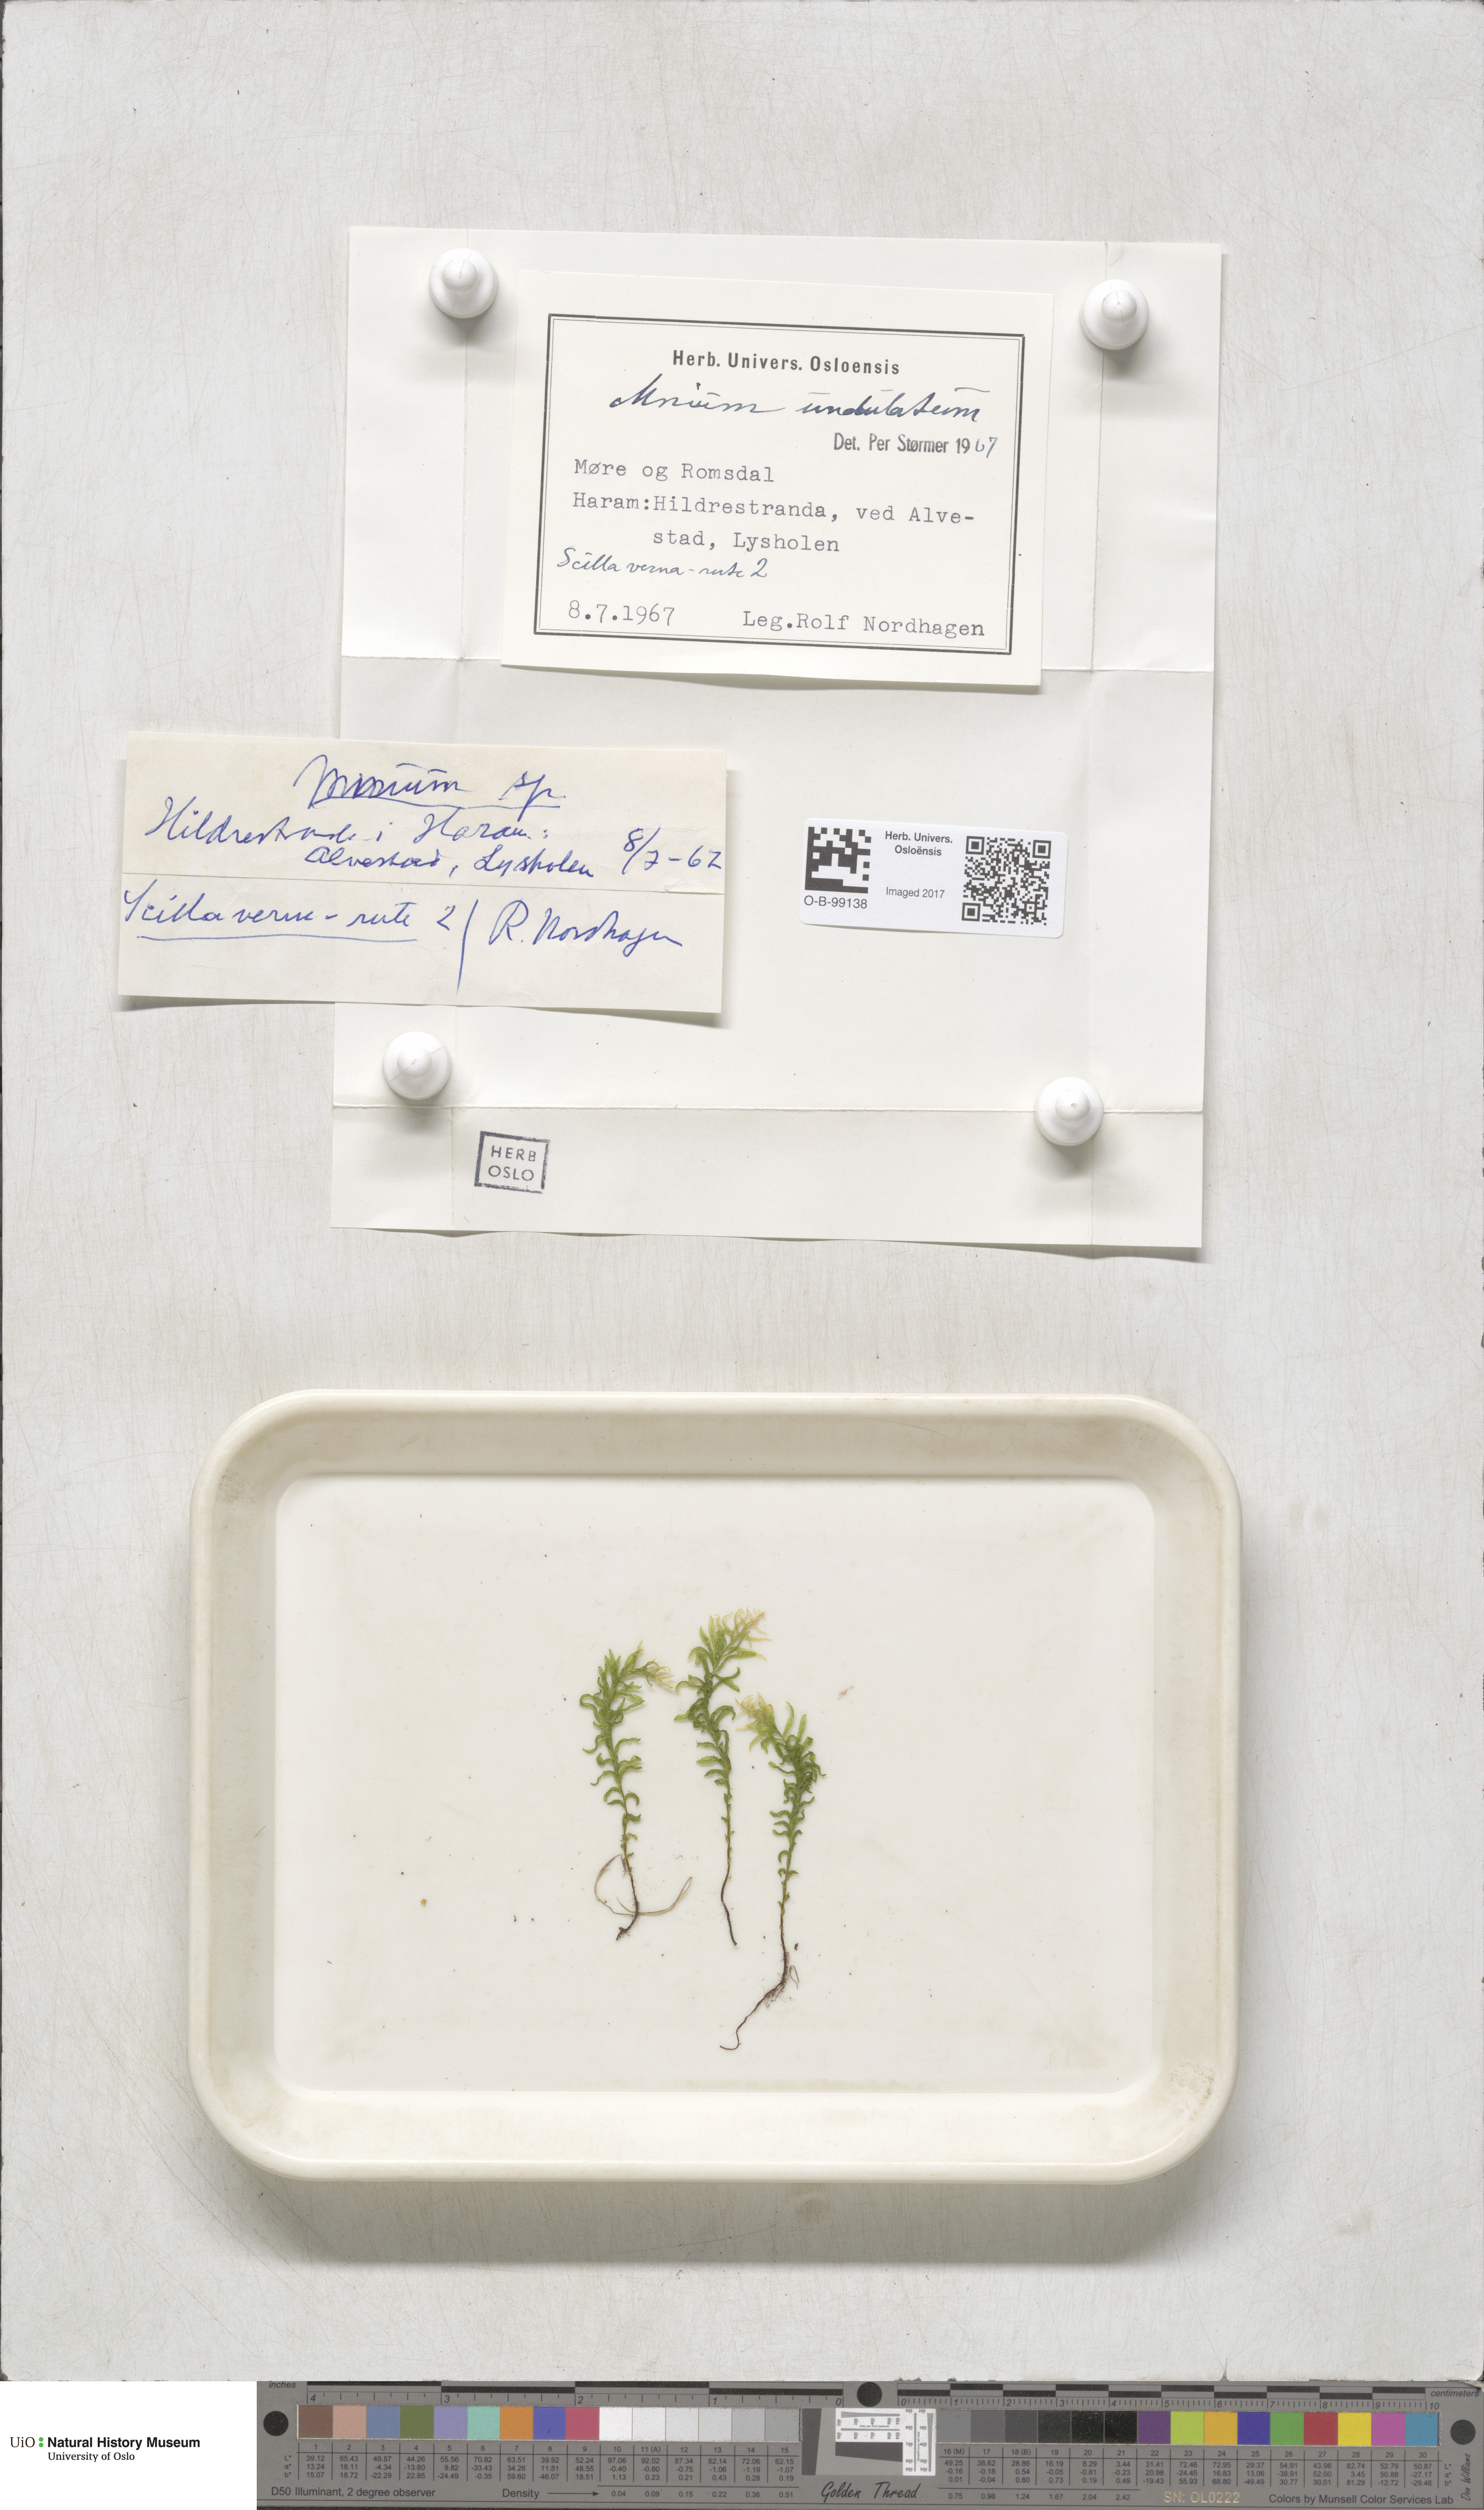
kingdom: Plantae
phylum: Bryophyta
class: Bryopsida
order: Bryales
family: Mniaceae
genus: Plagiomnium
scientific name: Plagiomnium undulatum
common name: Hart's-tongue thyme-moss
